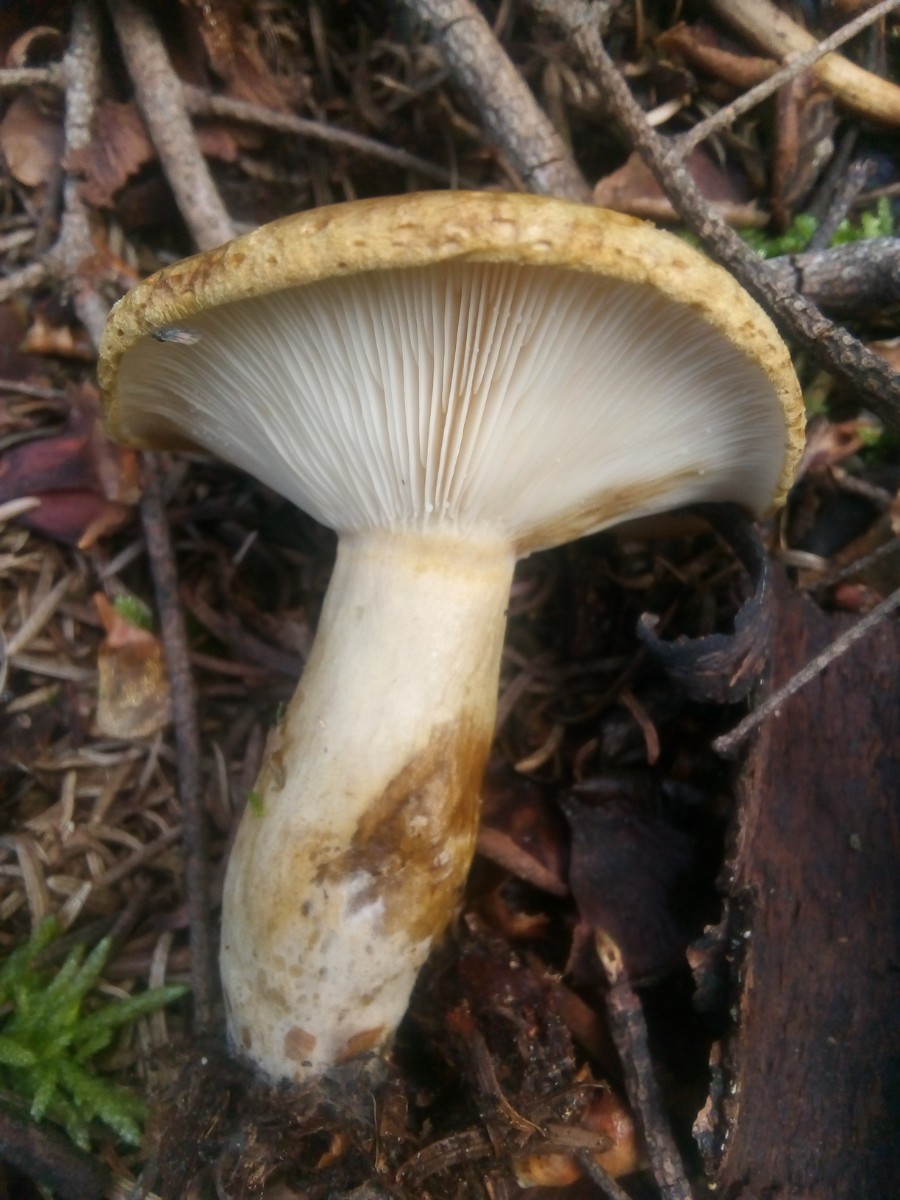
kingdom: Fungi
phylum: Basidiomycota
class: Agaricomycetes
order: Russulales
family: Russulaceae
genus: Lactarius
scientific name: Lactarius necator
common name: manddraber-mælkehat
